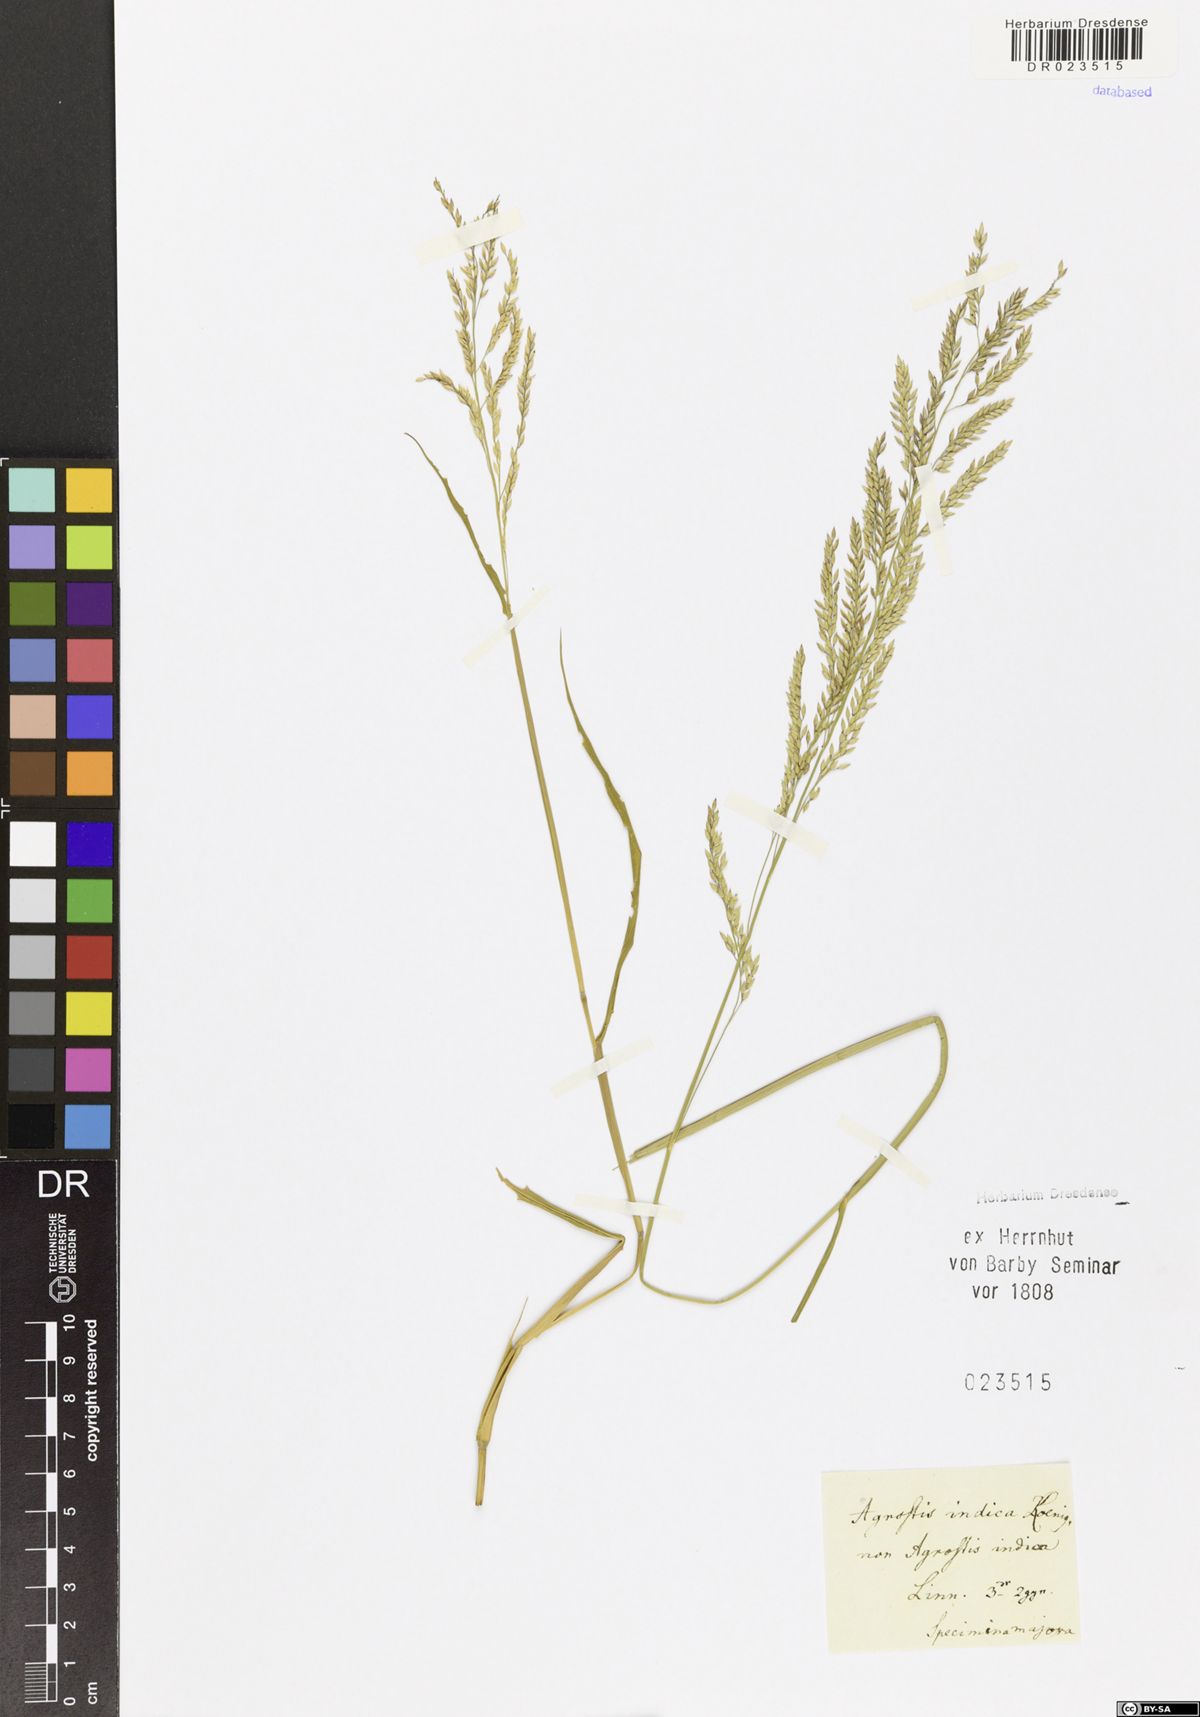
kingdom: Plantae
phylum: Tracheophyta
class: Liliopsida
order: Poales
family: Poaceae
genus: Sporobolus
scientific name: Sporobolus indicus
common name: Smut grass
